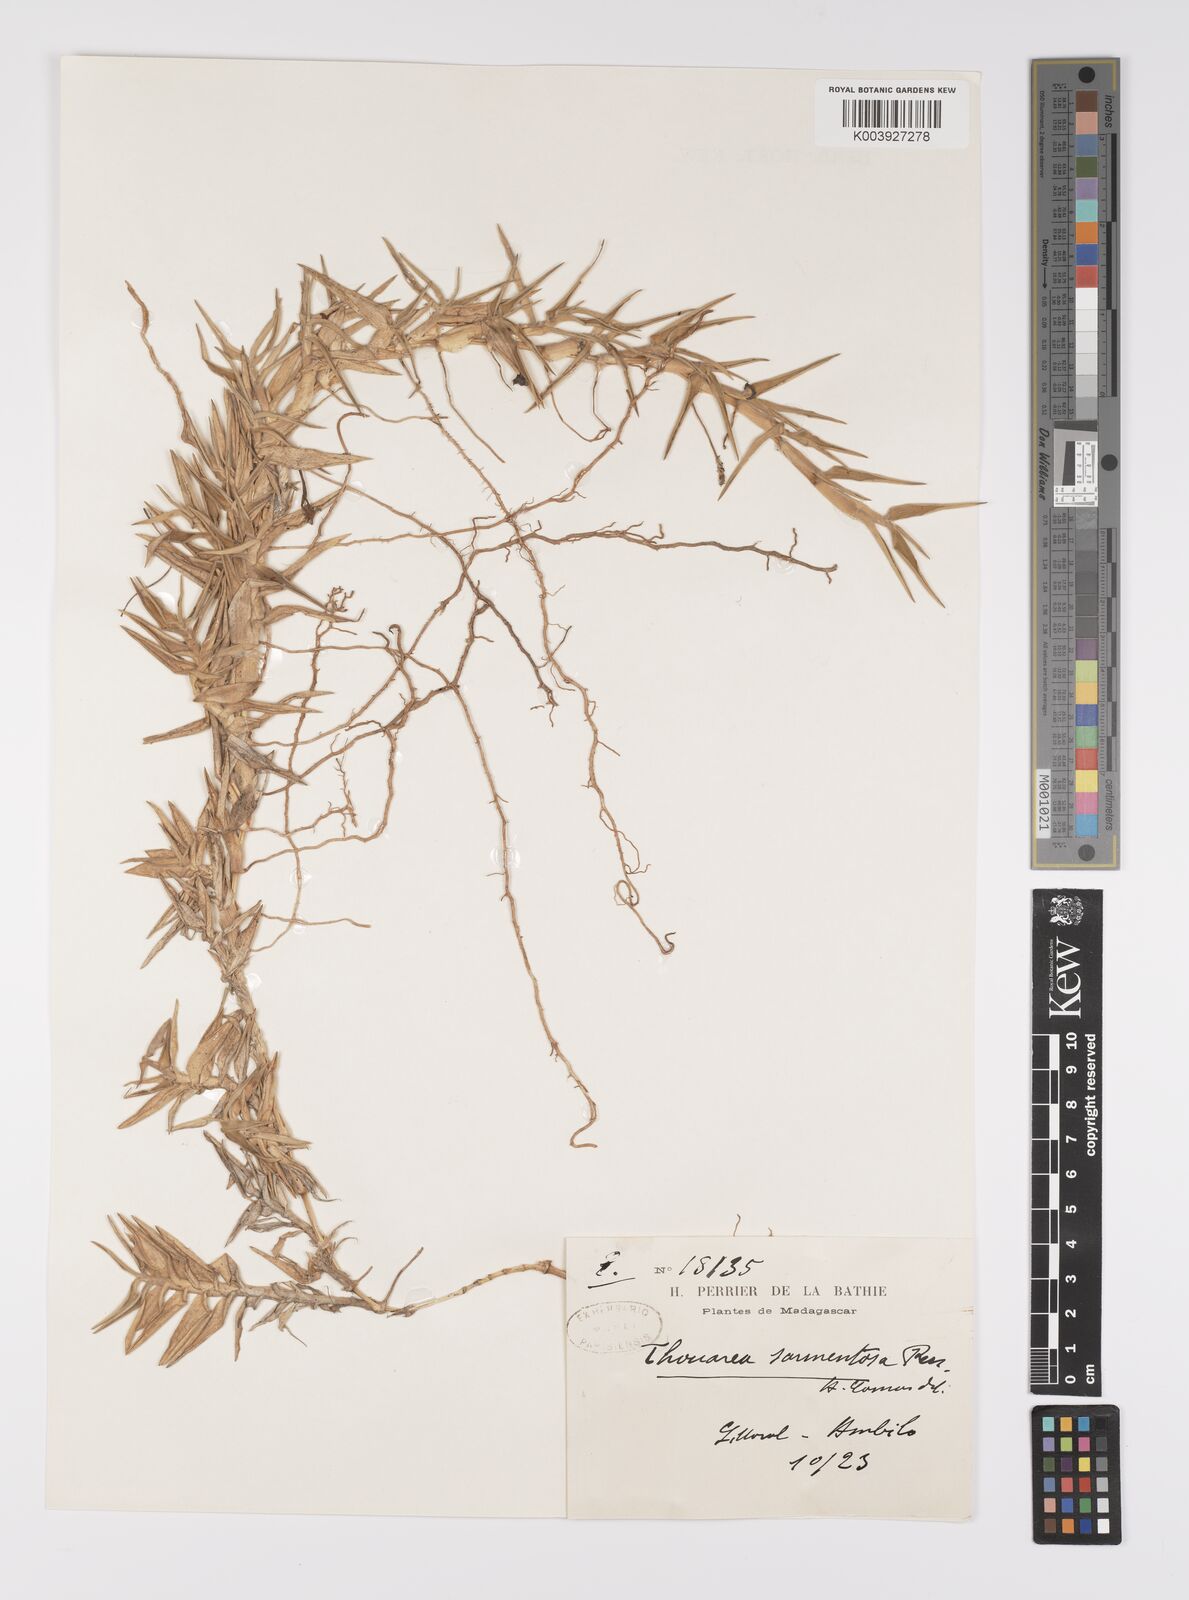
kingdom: Plantae
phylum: Tracheophyta
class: Liliopsida
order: Poales
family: Poaceae
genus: Thuarea
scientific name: Thuarea involuta
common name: Tropical beach grass
